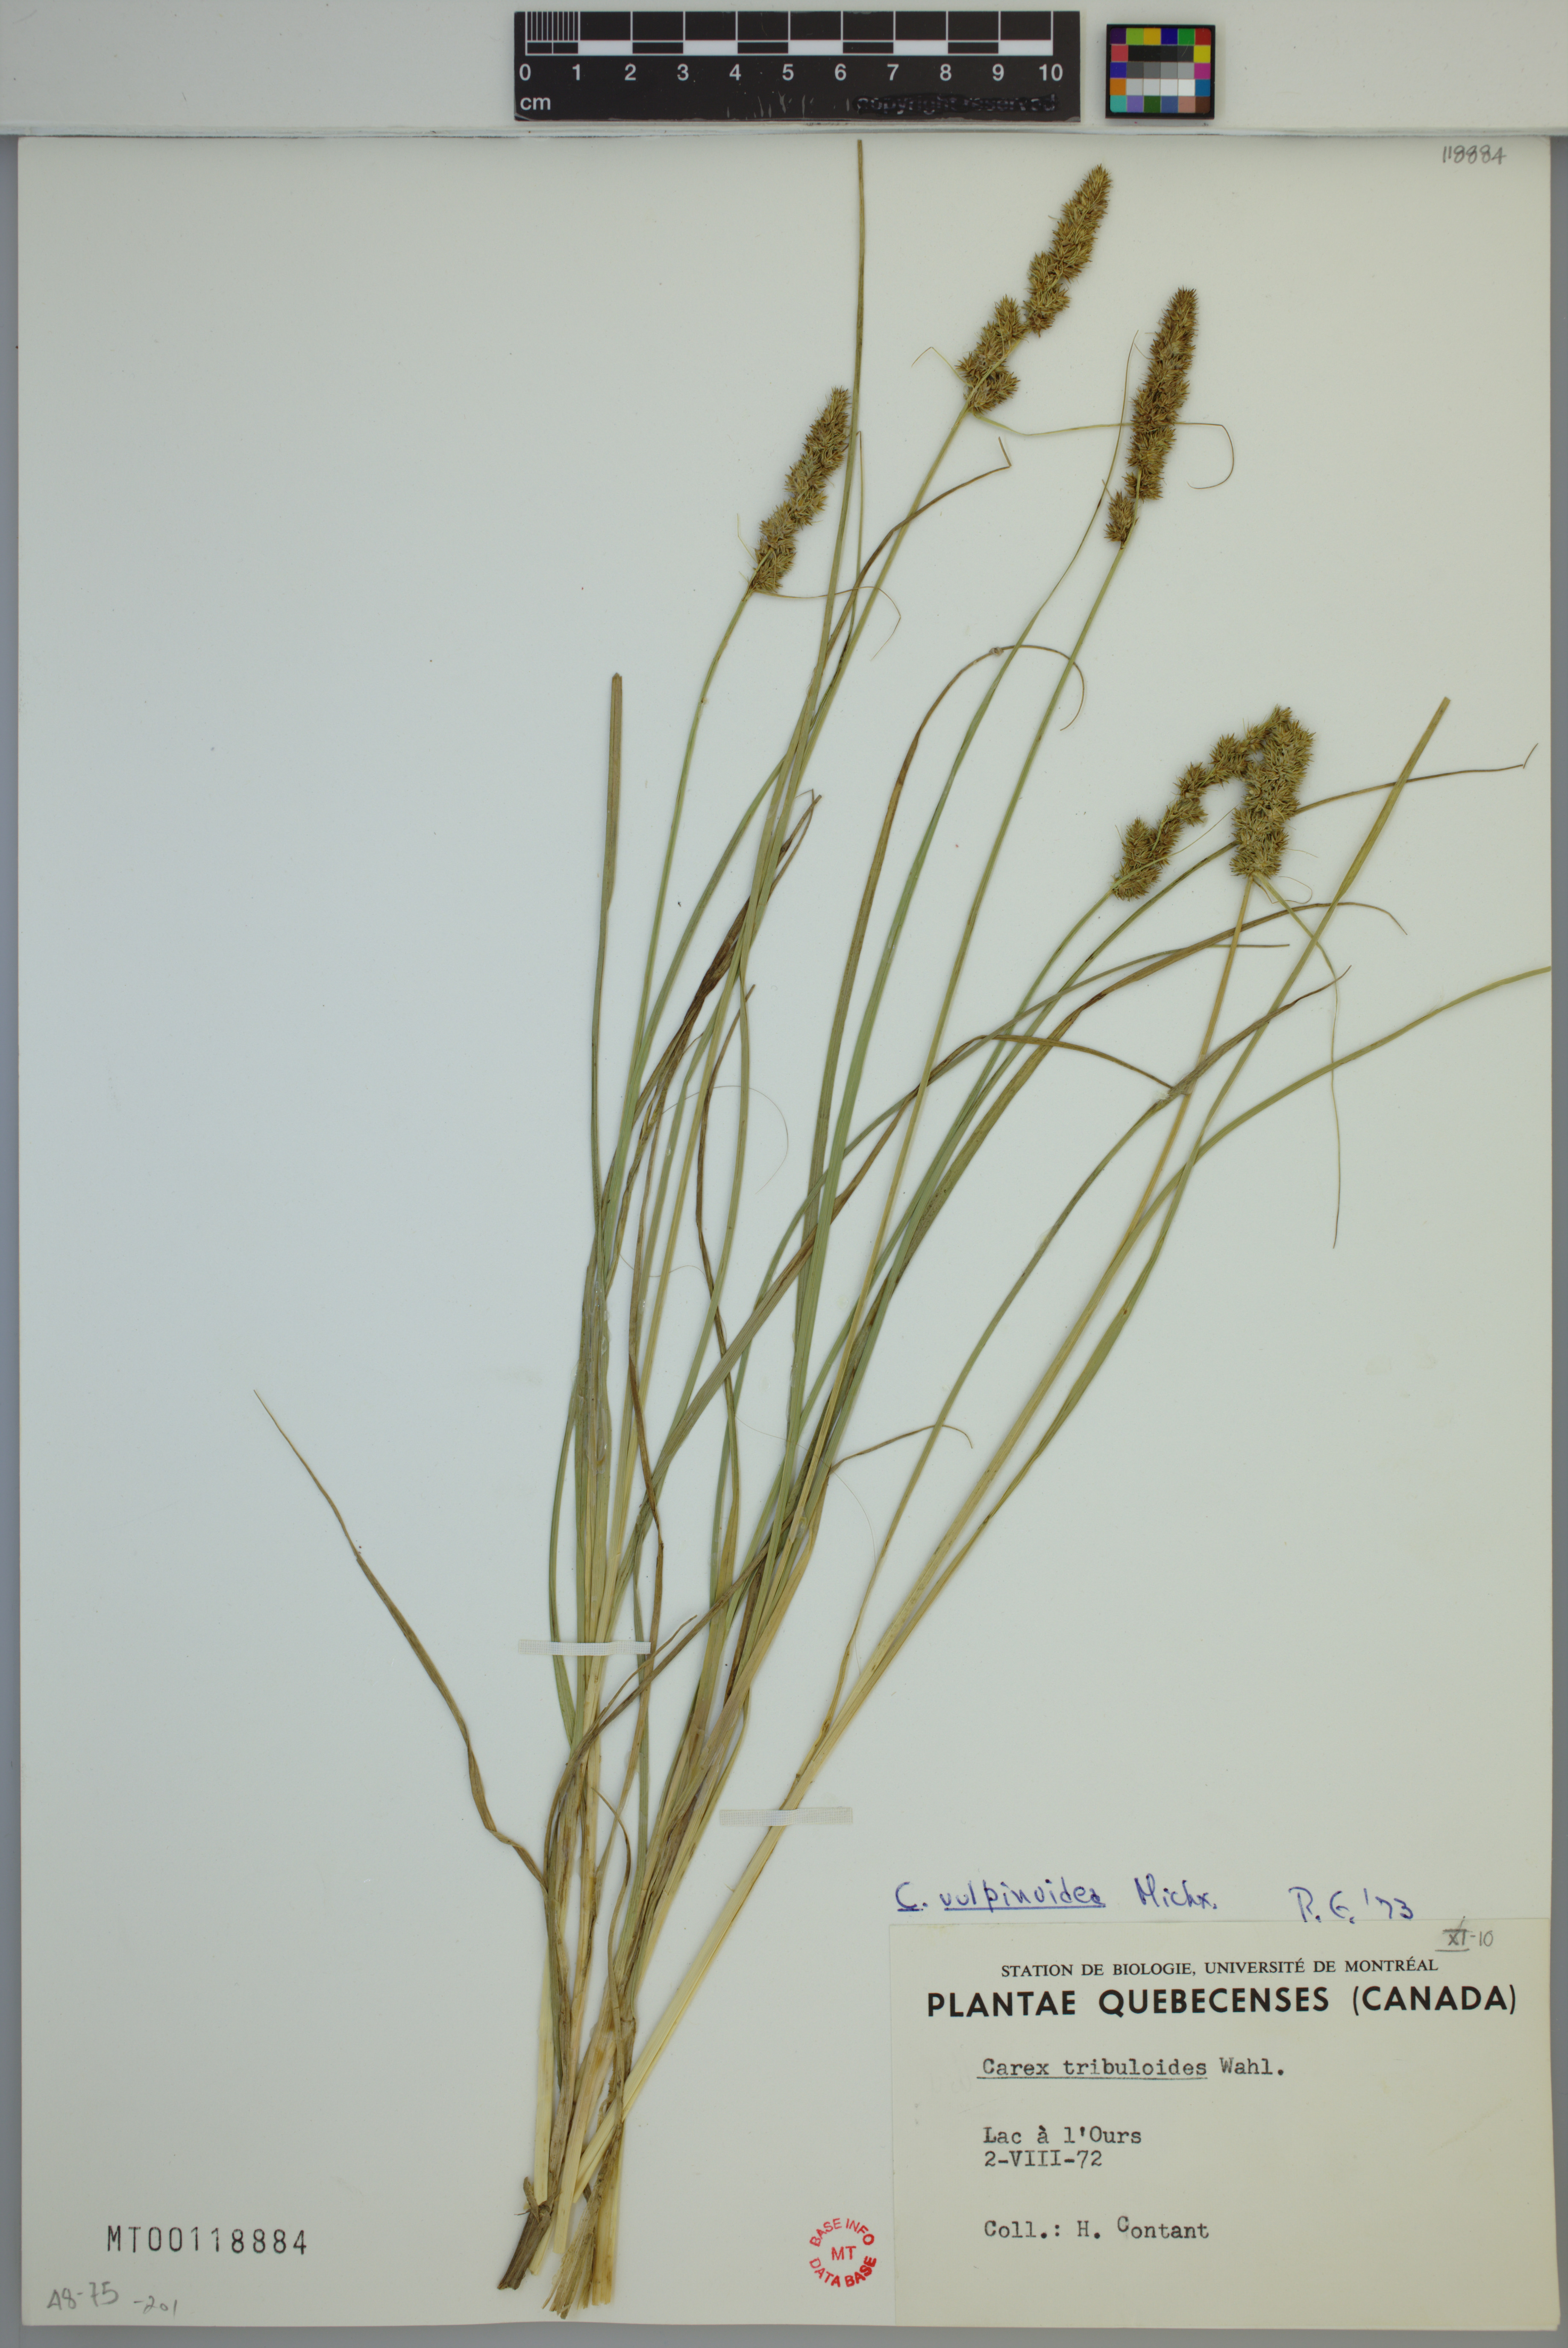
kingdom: Plantae
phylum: Tracheophyta
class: Liliopsida
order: Poales
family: Cyperaceae
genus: Carex
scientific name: Carex vulpinoidea
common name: American fox-sedge
